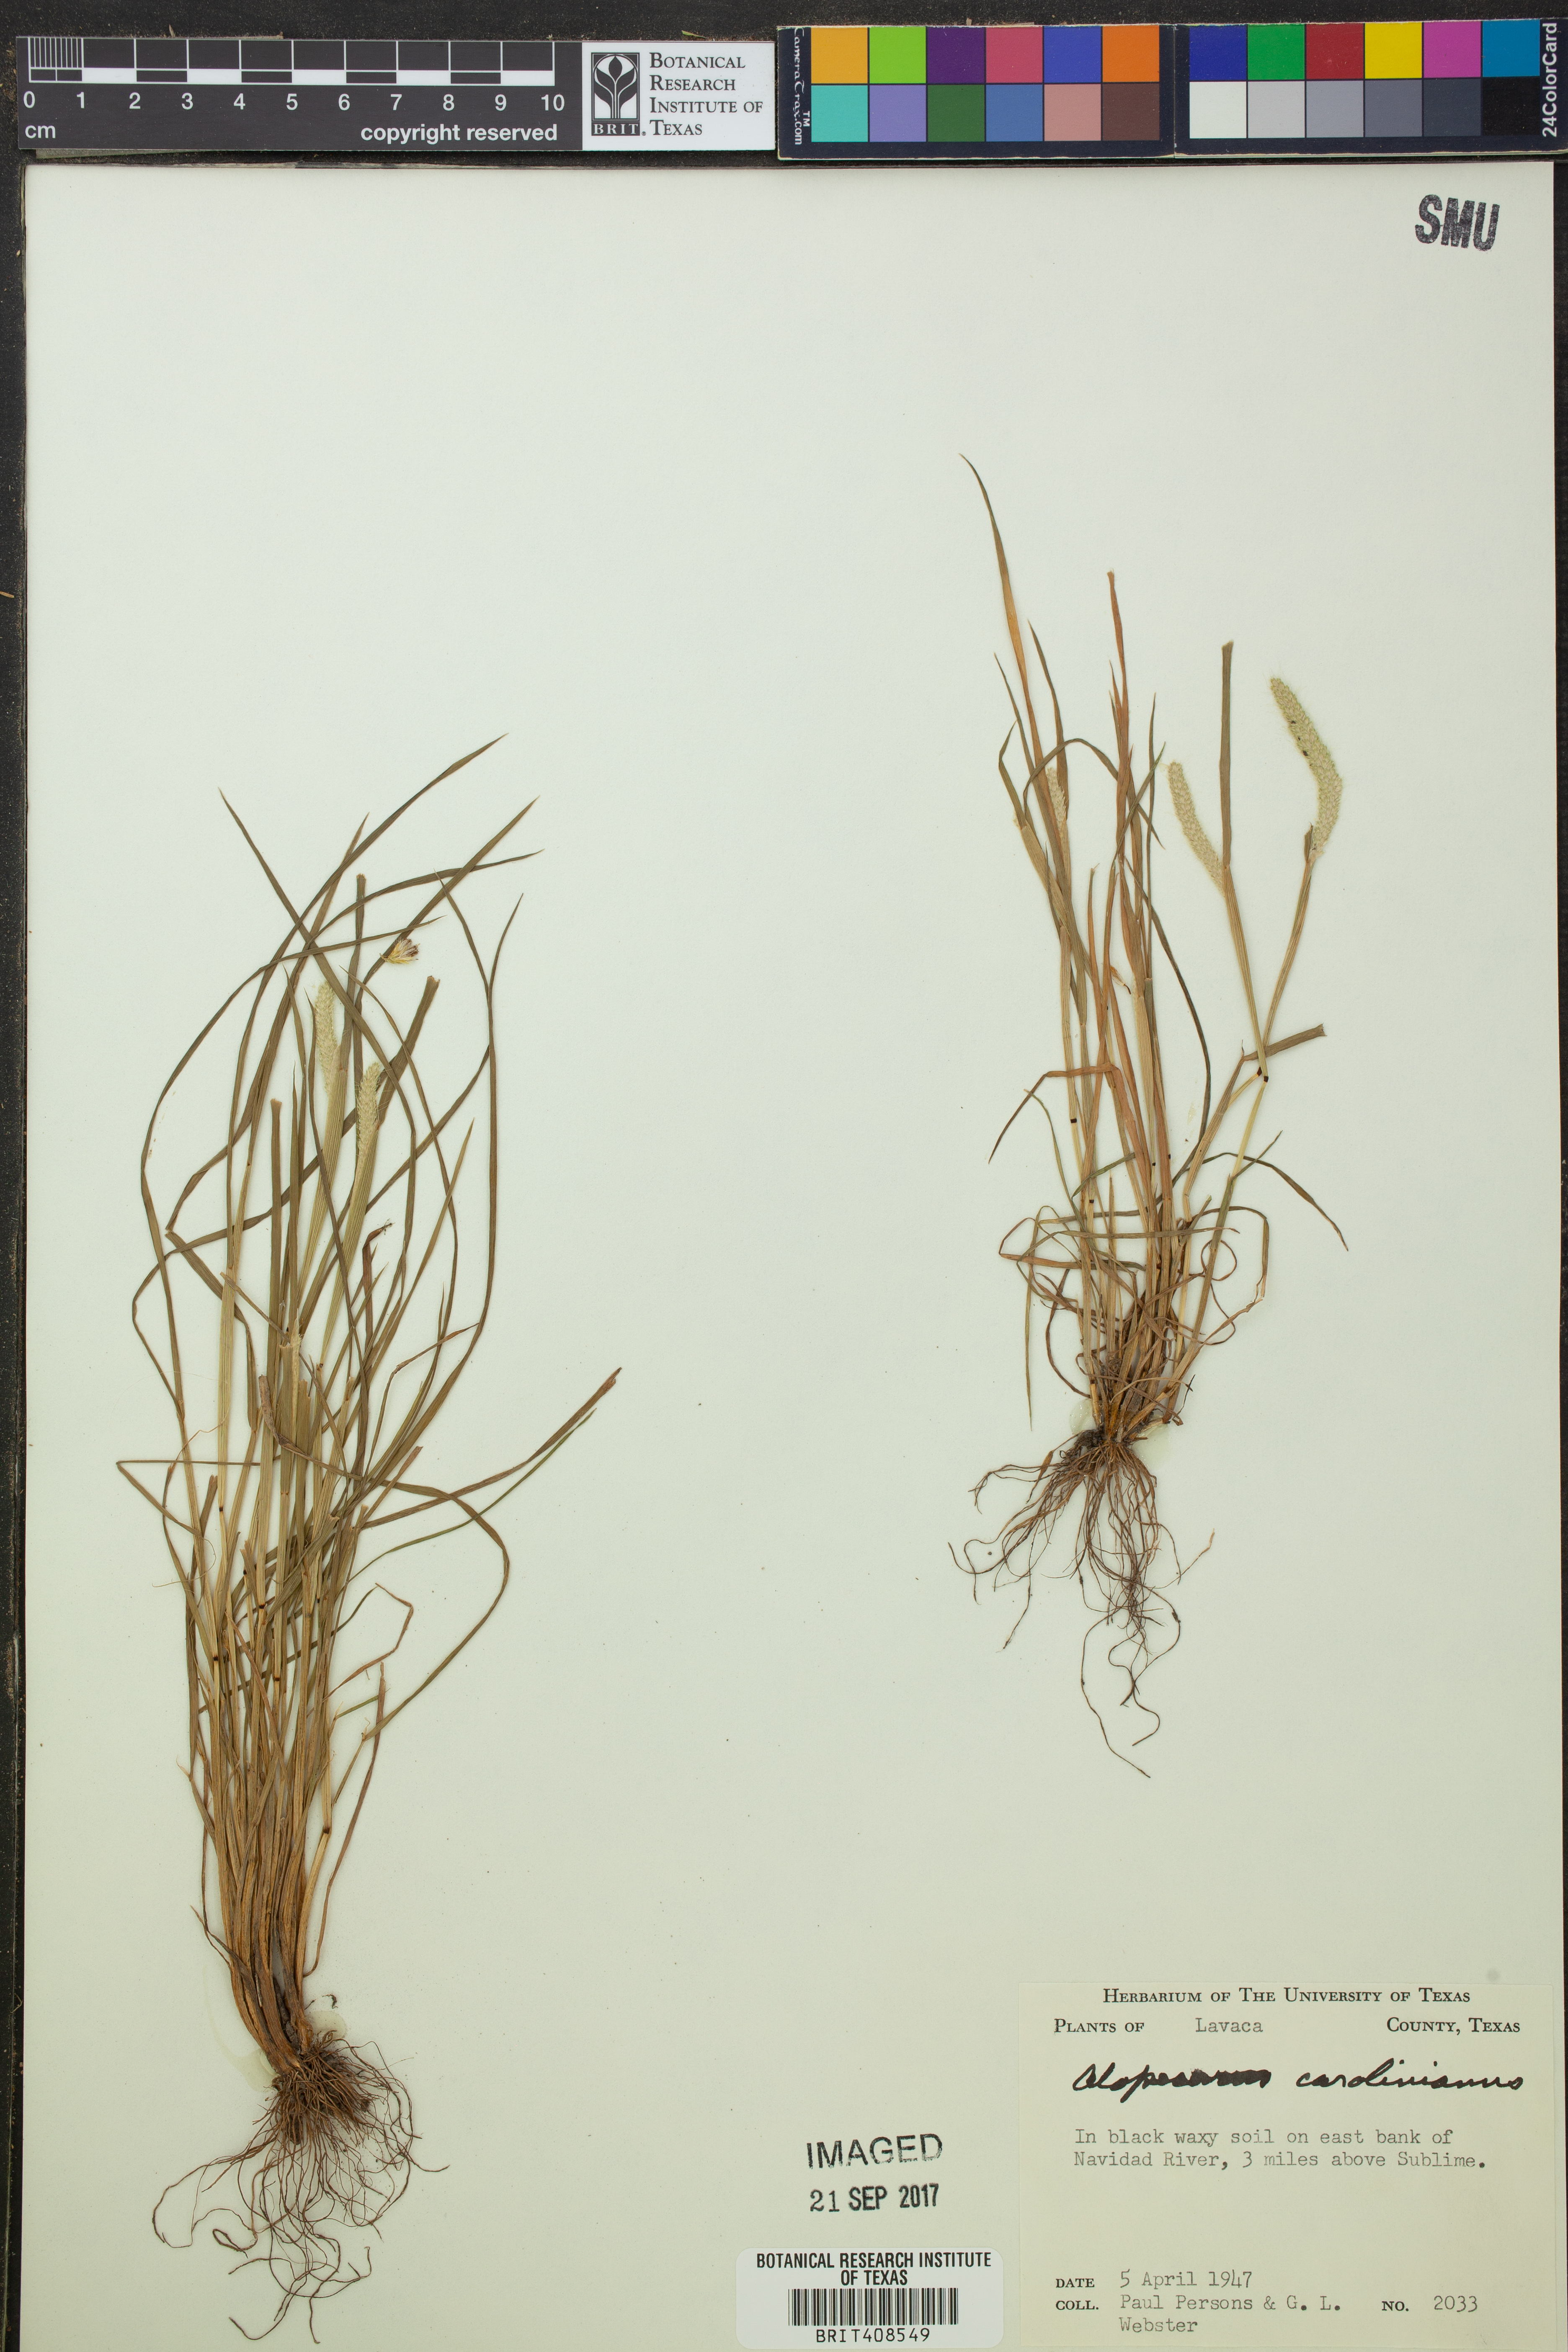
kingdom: Plantae
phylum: Tracheophyta
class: Liliopsida
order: Poales
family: Poaceae
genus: Alopecurus
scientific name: Alopecurus carolinianus
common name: Tufted foxtail
